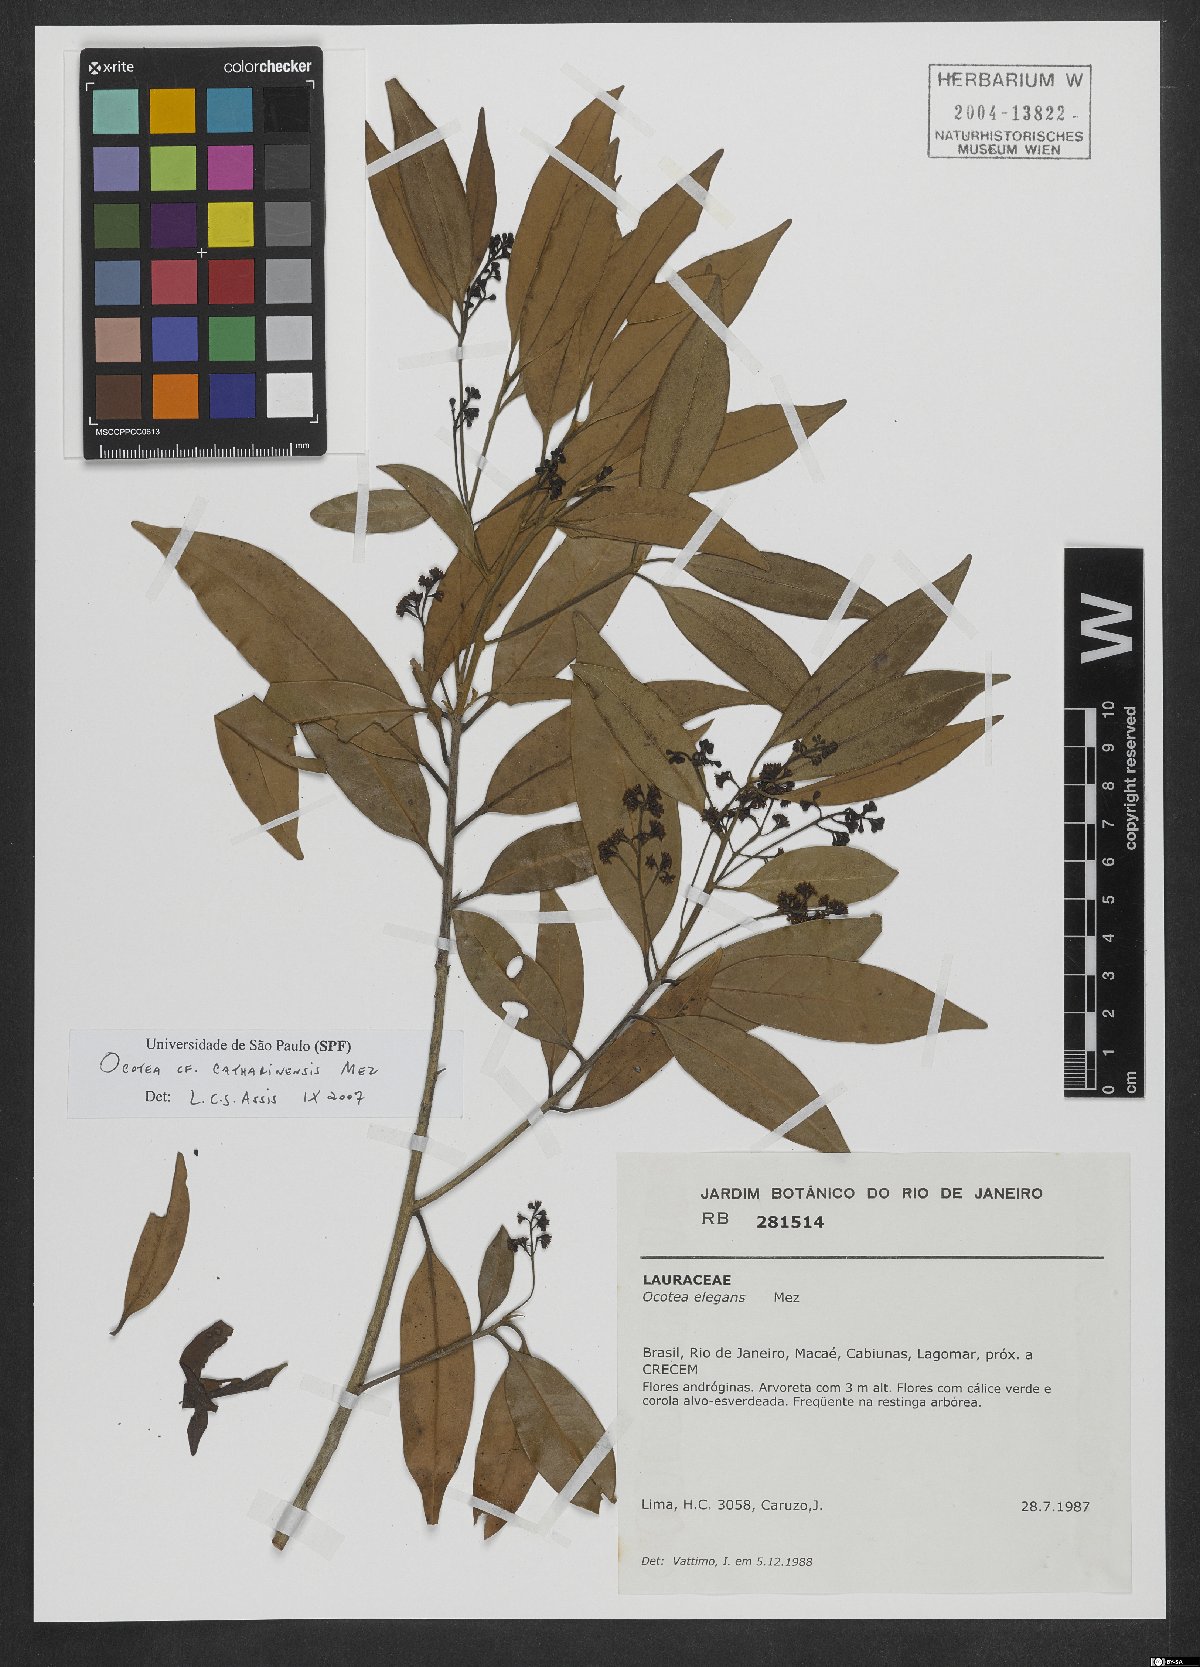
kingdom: Plantae
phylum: Tracheophyta
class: Magnoliopsida
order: Laurales
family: Lauraceae
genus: Ocotea
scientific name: Ocotea catharinensis
